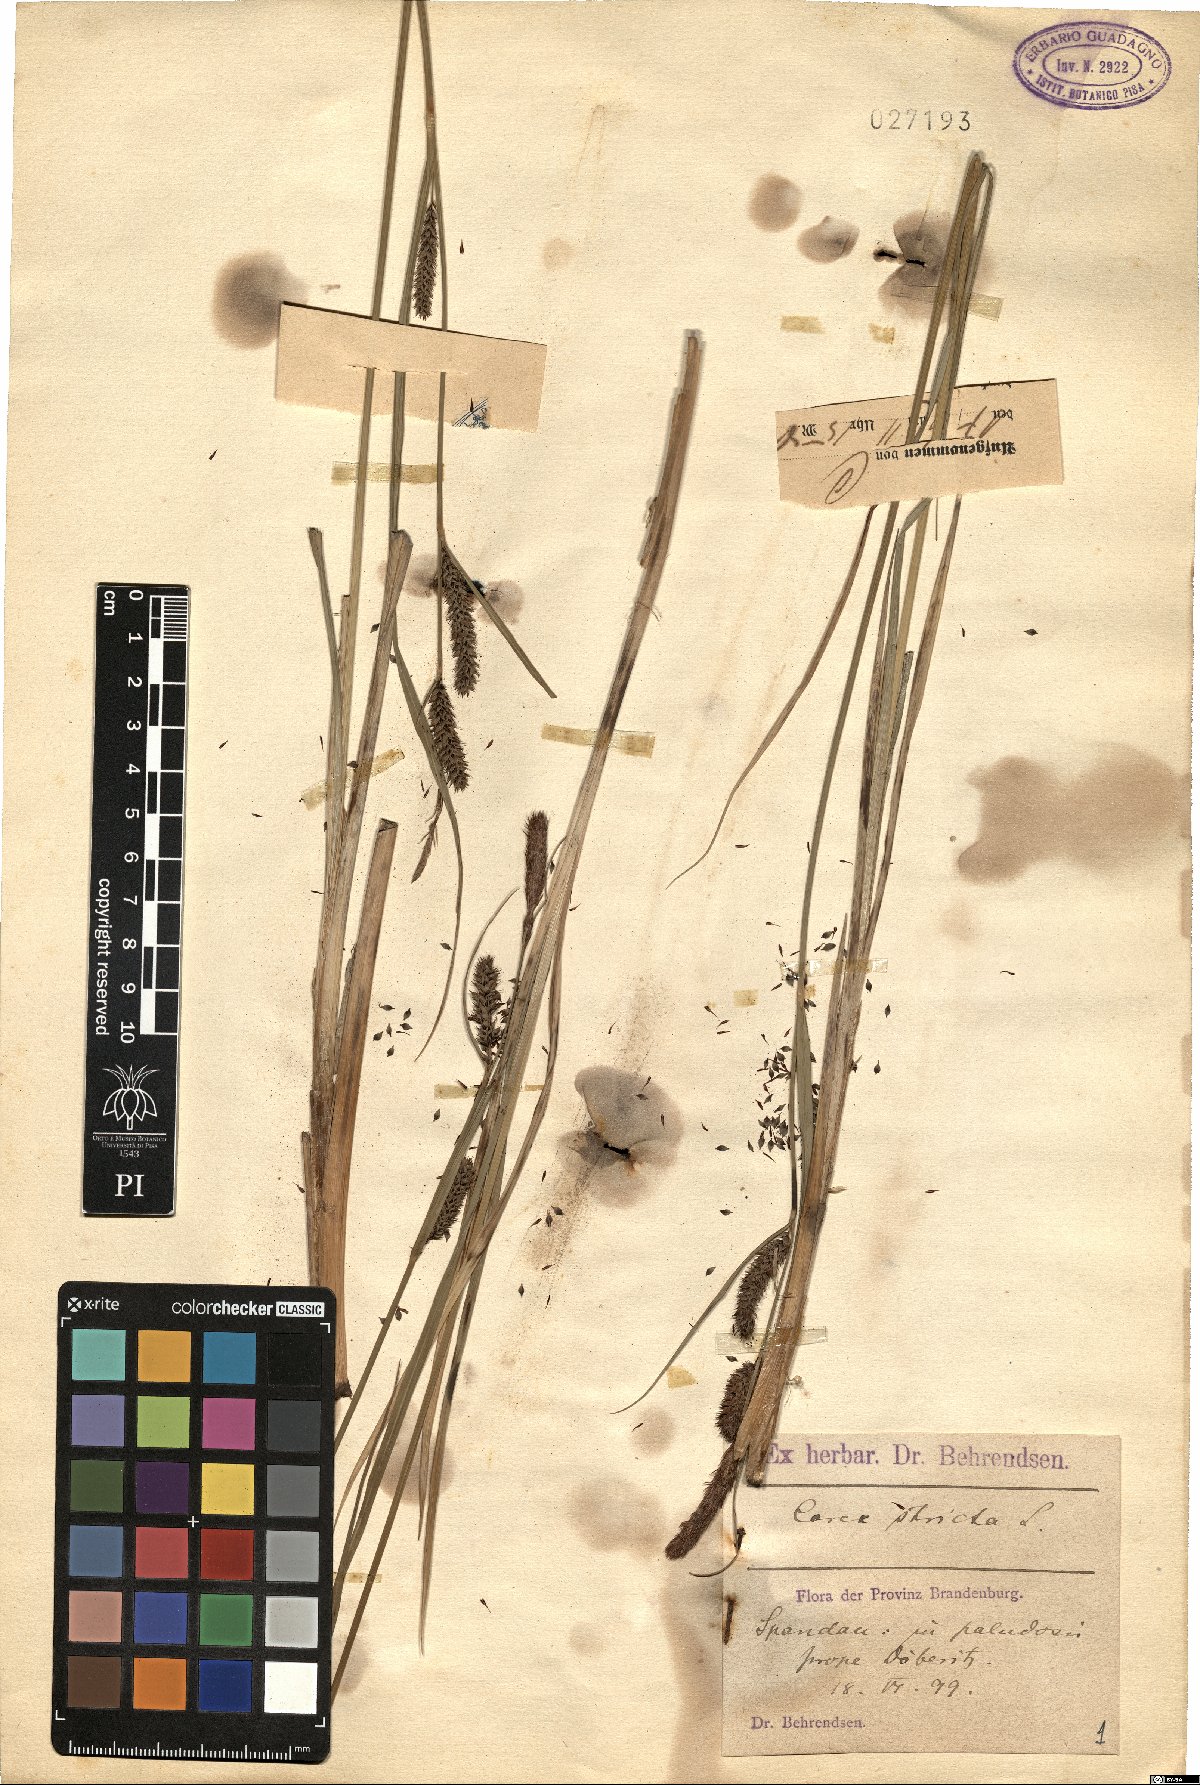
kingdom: Plantae
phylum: Tracheophyta
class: Liliopsida
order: Poales
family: Cyperaceae
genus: Carex
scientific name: Carex stricta
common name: Hummock sedge
